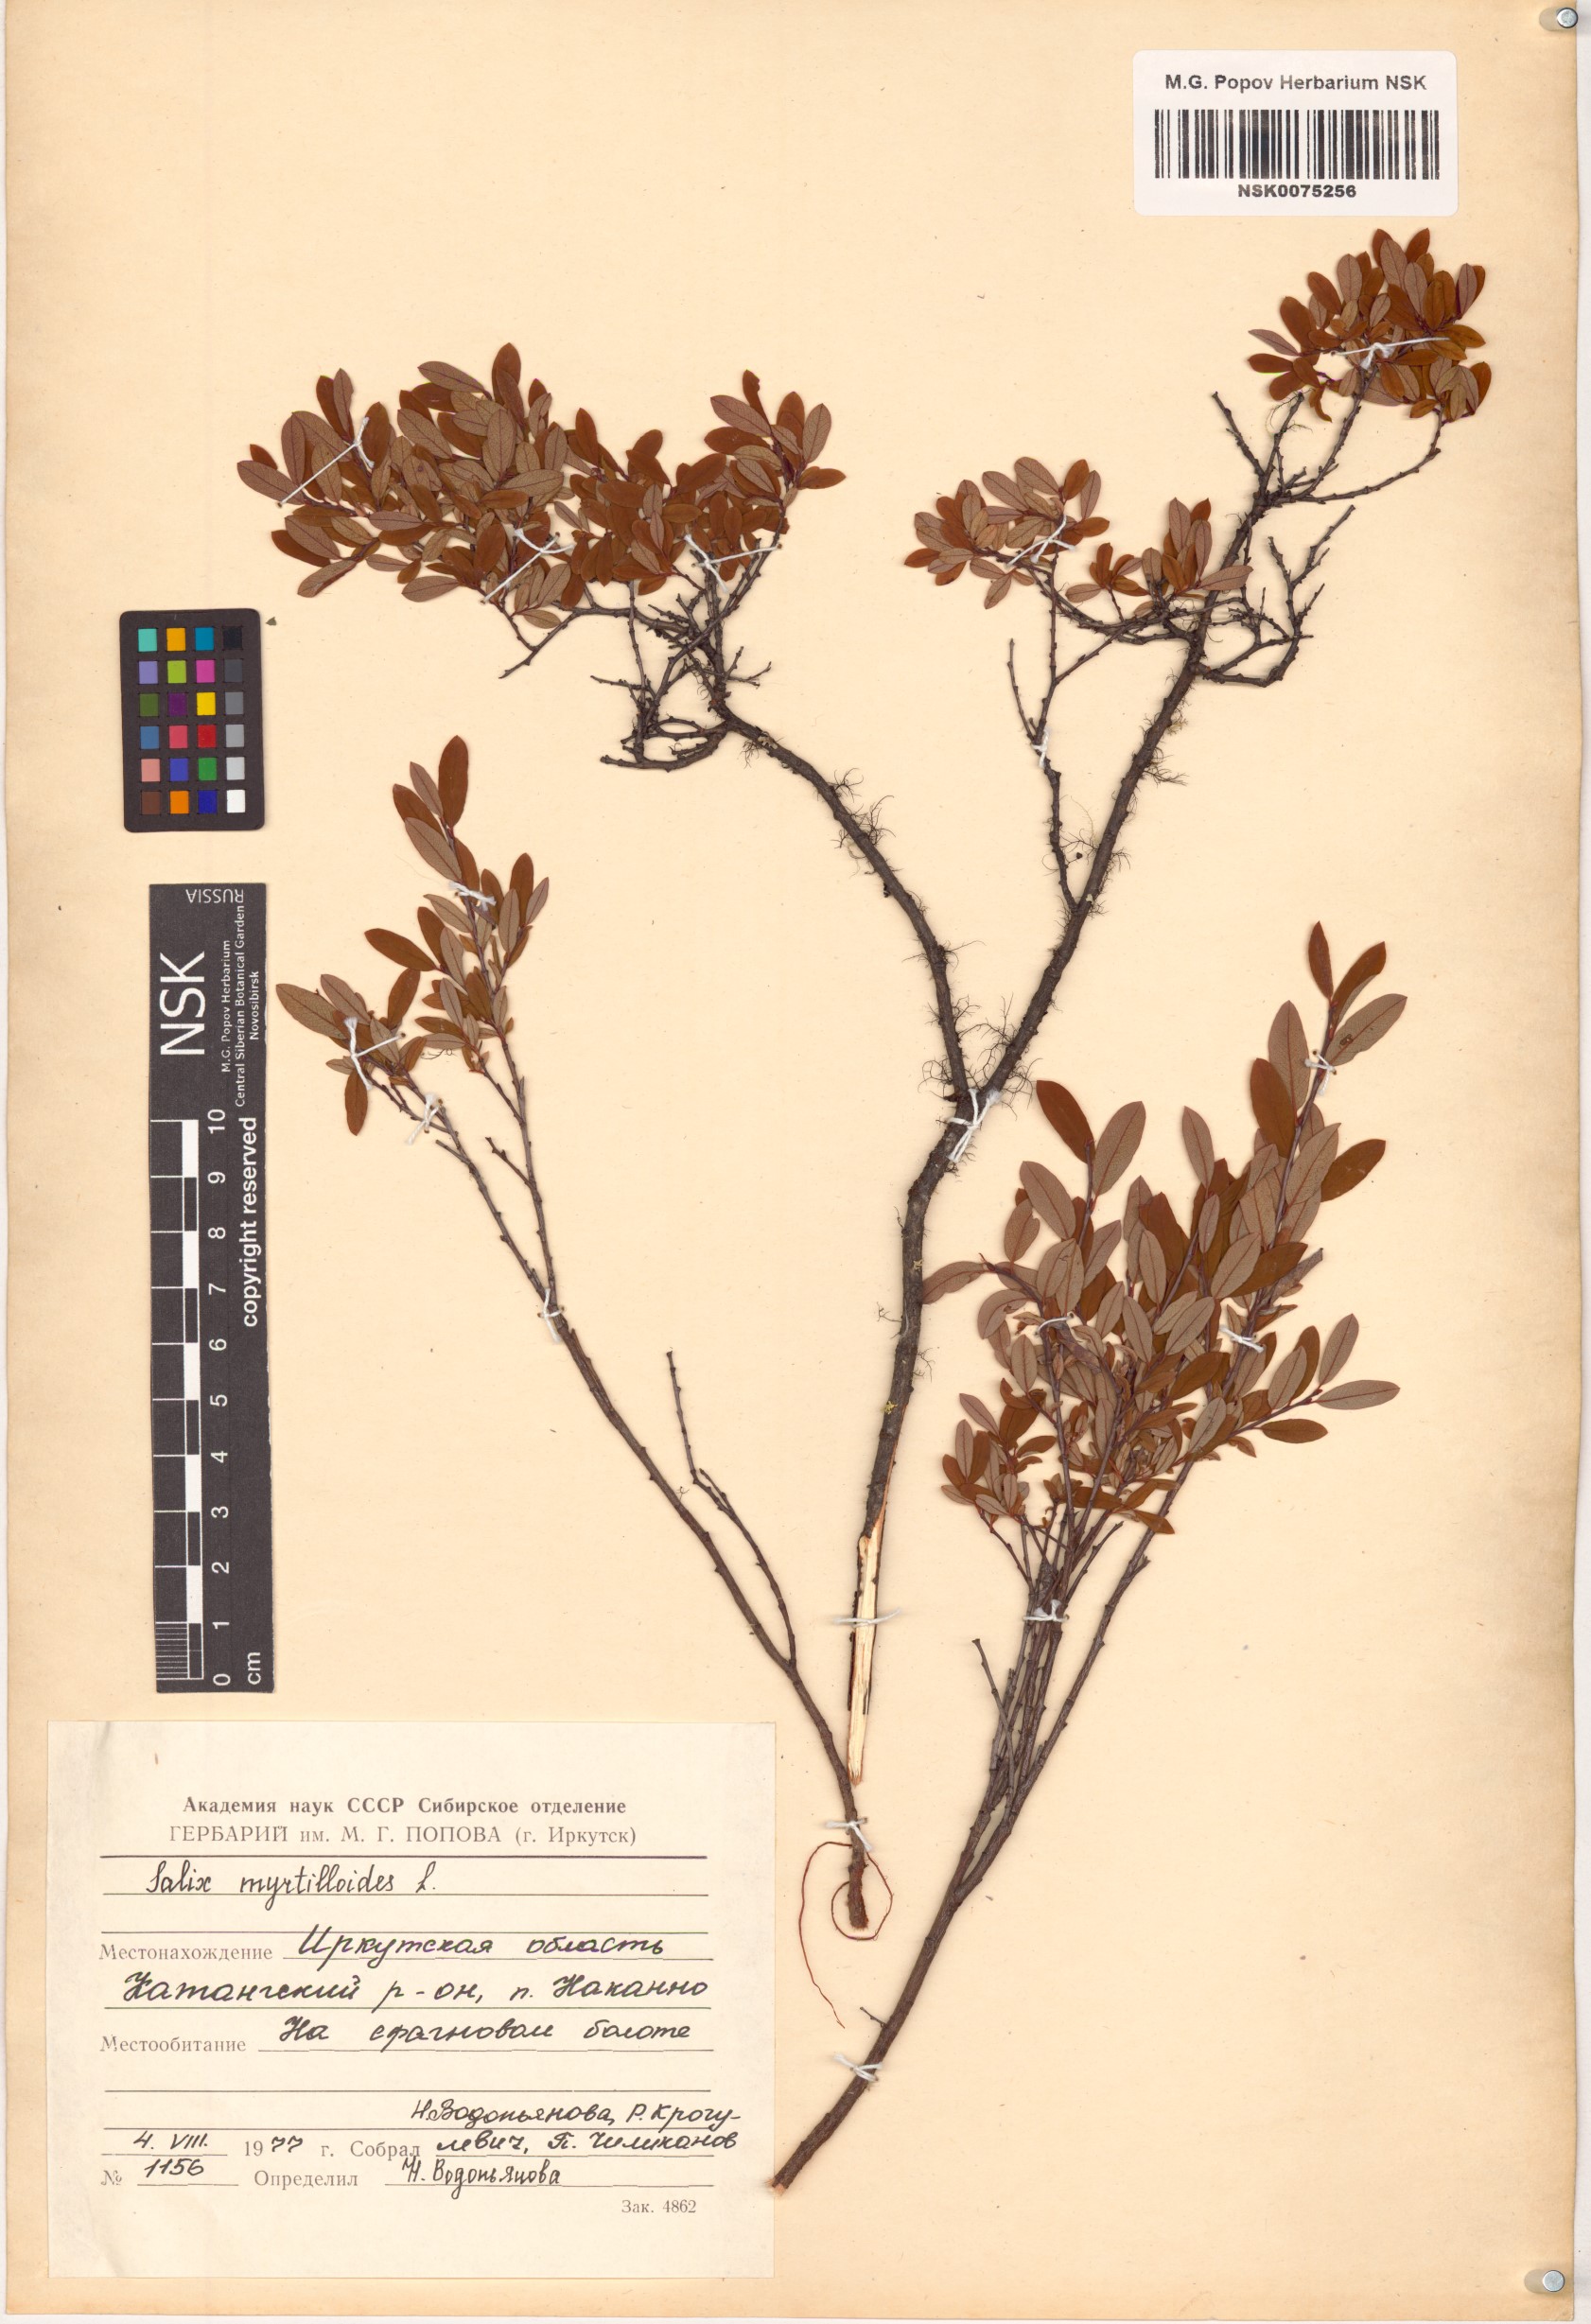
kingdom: Plantae
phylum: Tracheophyta
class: Magnoliopsida
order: Malpighiales
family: Salicaceae
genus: Salix
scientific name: Salix myrtilloides
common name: Myrtle-leaved willow
